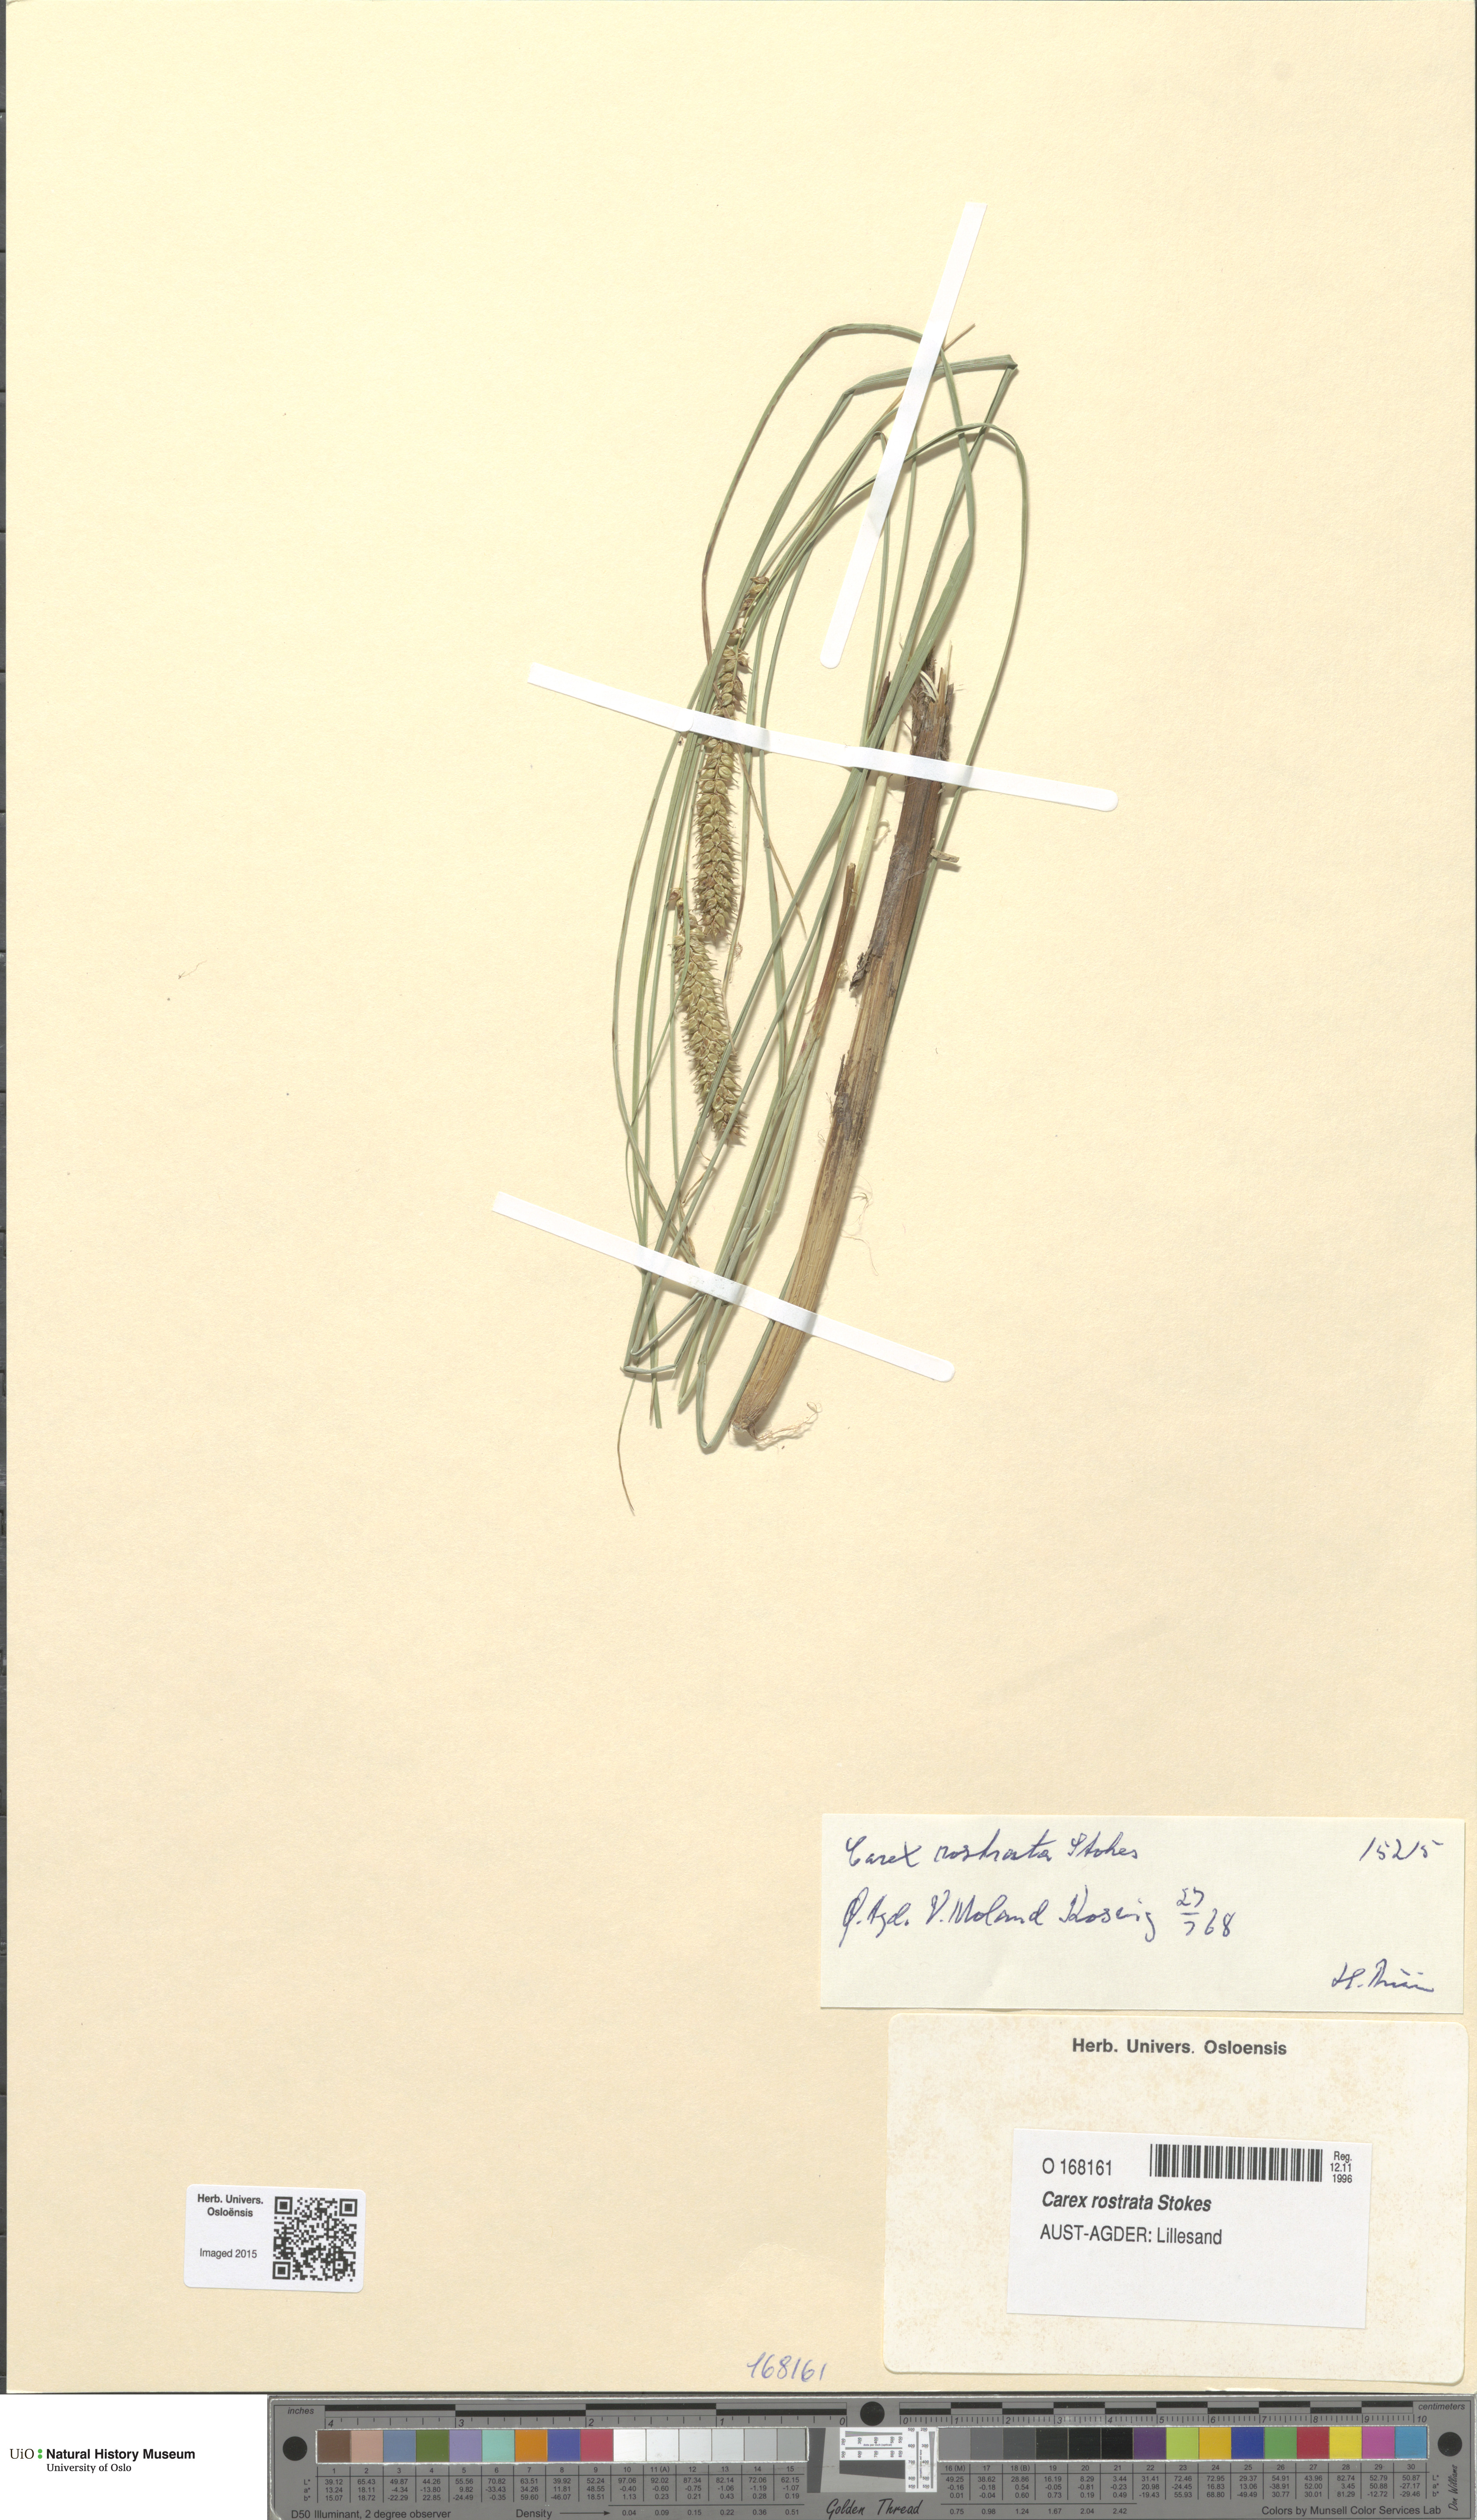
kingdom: Plantae
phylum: Tracheophyta
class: Liliopsida
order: Poales
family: Cyperaceae
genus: Carex
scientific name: Carex rostrata
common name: Bottle sedge
